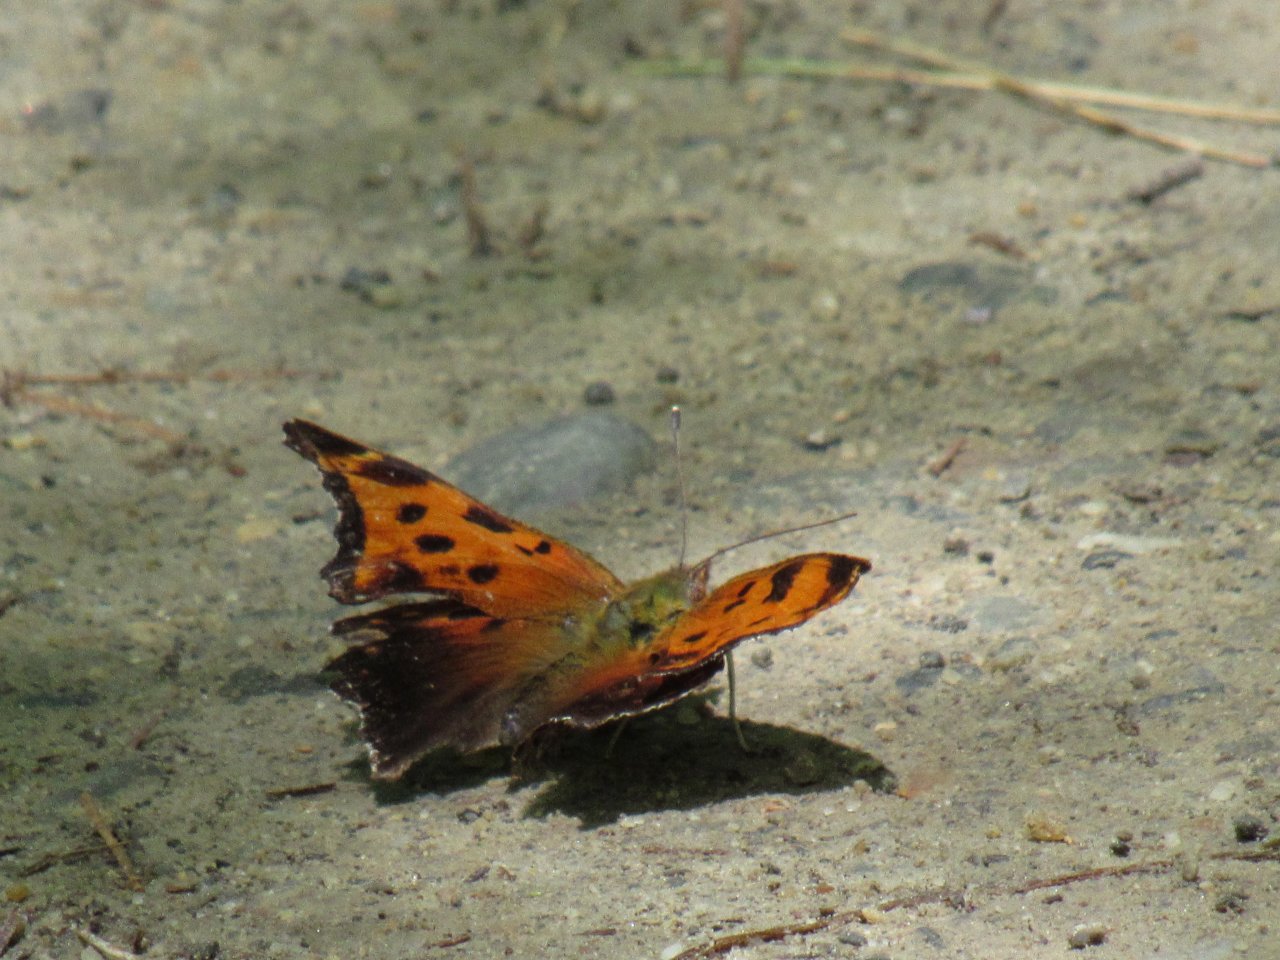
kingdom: Animalia
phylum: Arthropoda
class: Insecta
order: Lepidoptera
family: Nymphalidae
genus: Polygonia
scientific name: Polygonia comma
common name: Eastern Comma
